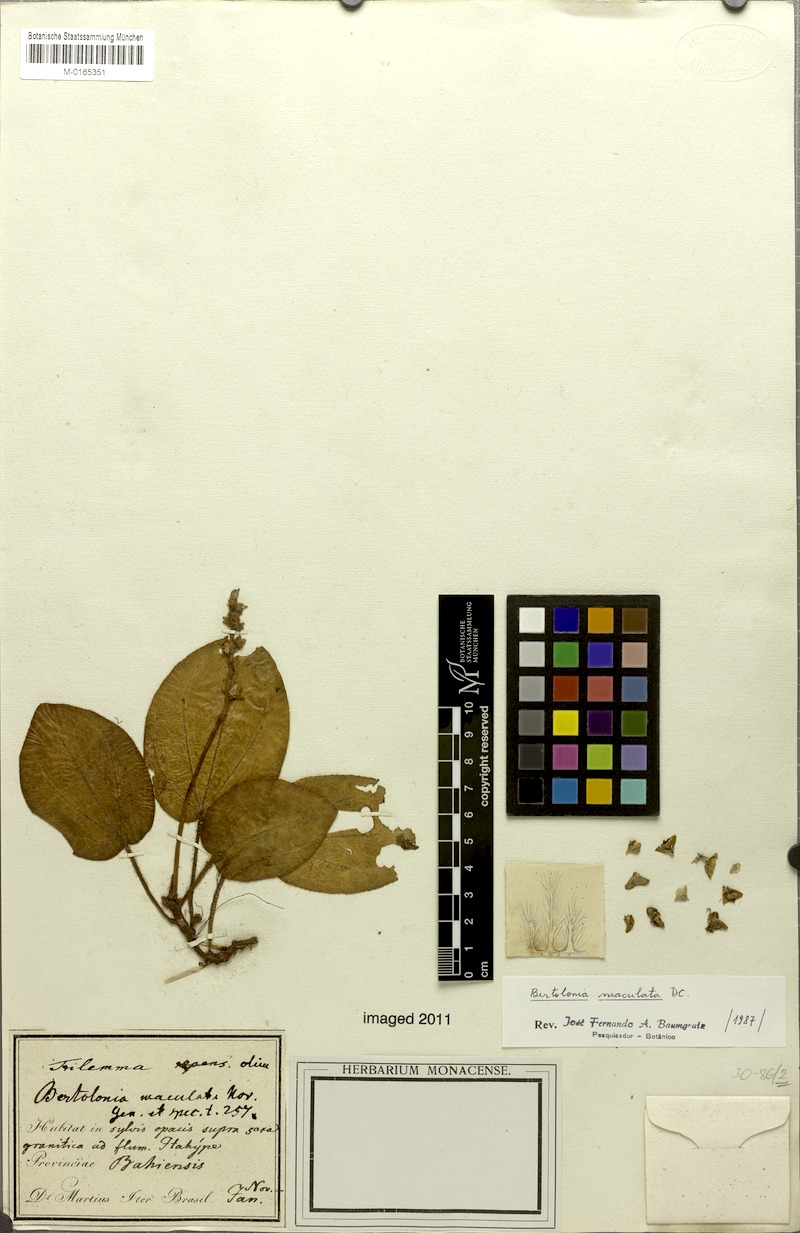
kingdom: Plantae
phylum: Tracheophyta
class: Magnoliopsida
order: Myrtales
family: Melastomataceae
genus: Bertolonia
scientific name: Bertolonia maculata
